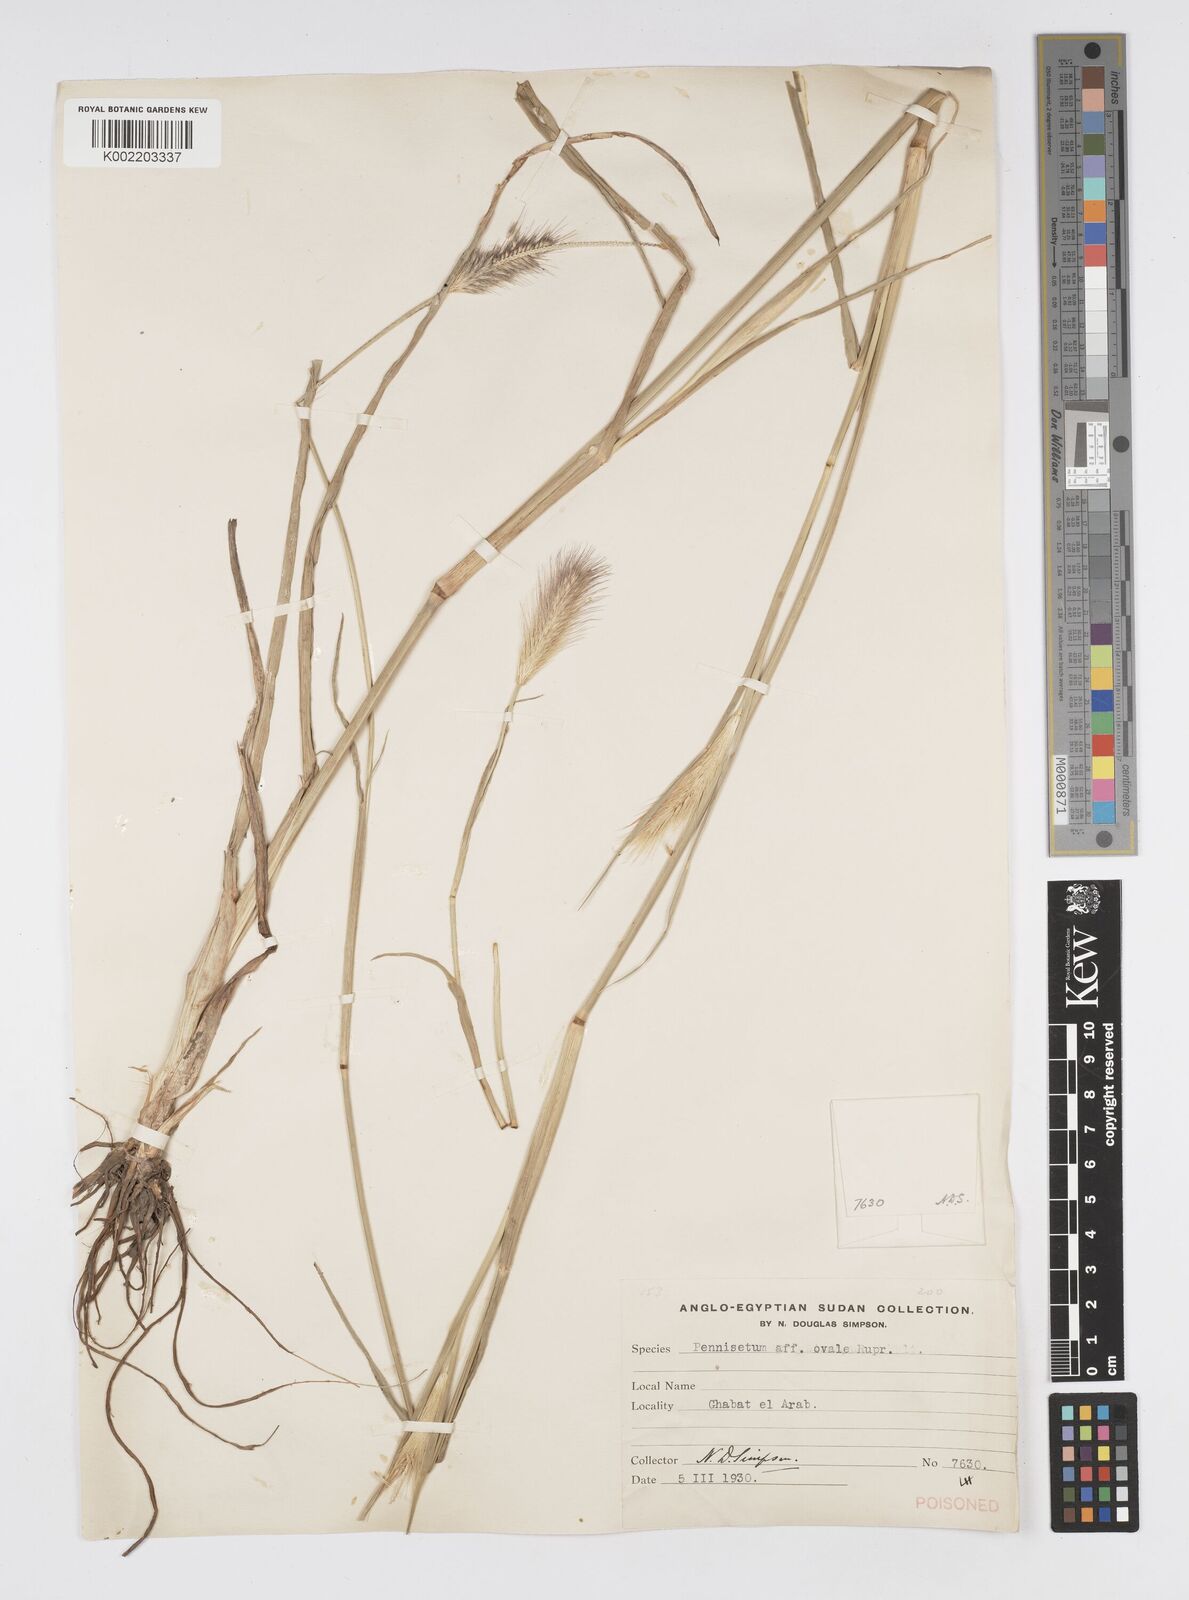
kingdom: Plantae
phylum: Tracheophyta
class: Liliopsida
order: Poales
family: Poaceae
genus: Cenchrus
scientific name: Cenchrus ramosus
